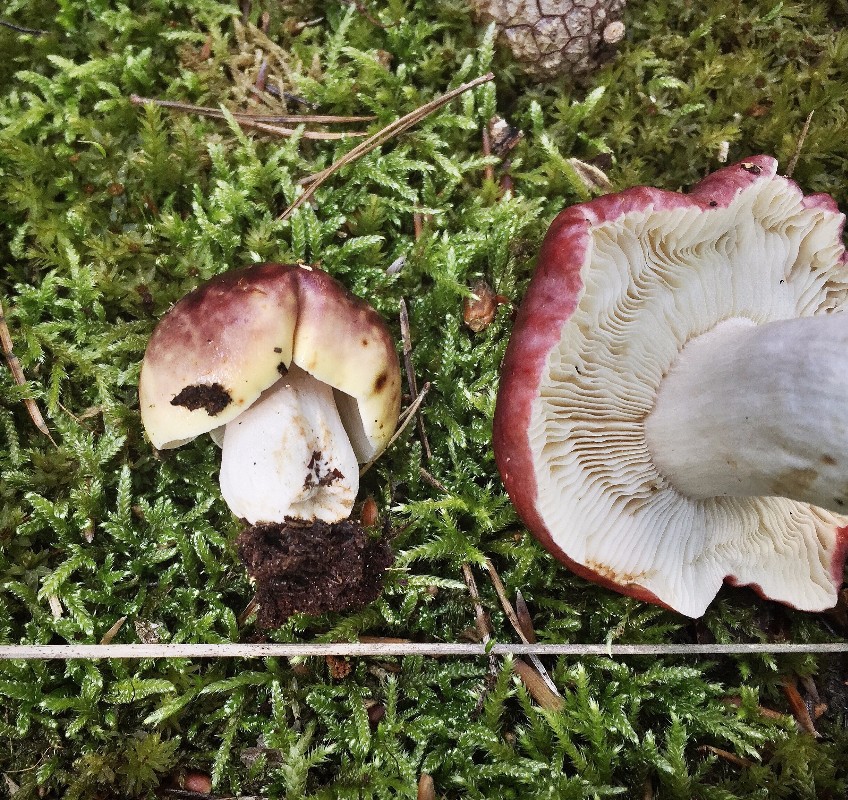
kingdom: Fungi
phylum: Basidiomycota
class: Agaricomycetes
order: Russulales
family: Russulaceae
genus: Russula
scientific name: Russula atropurpurea
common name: purpurbroget skørhat
